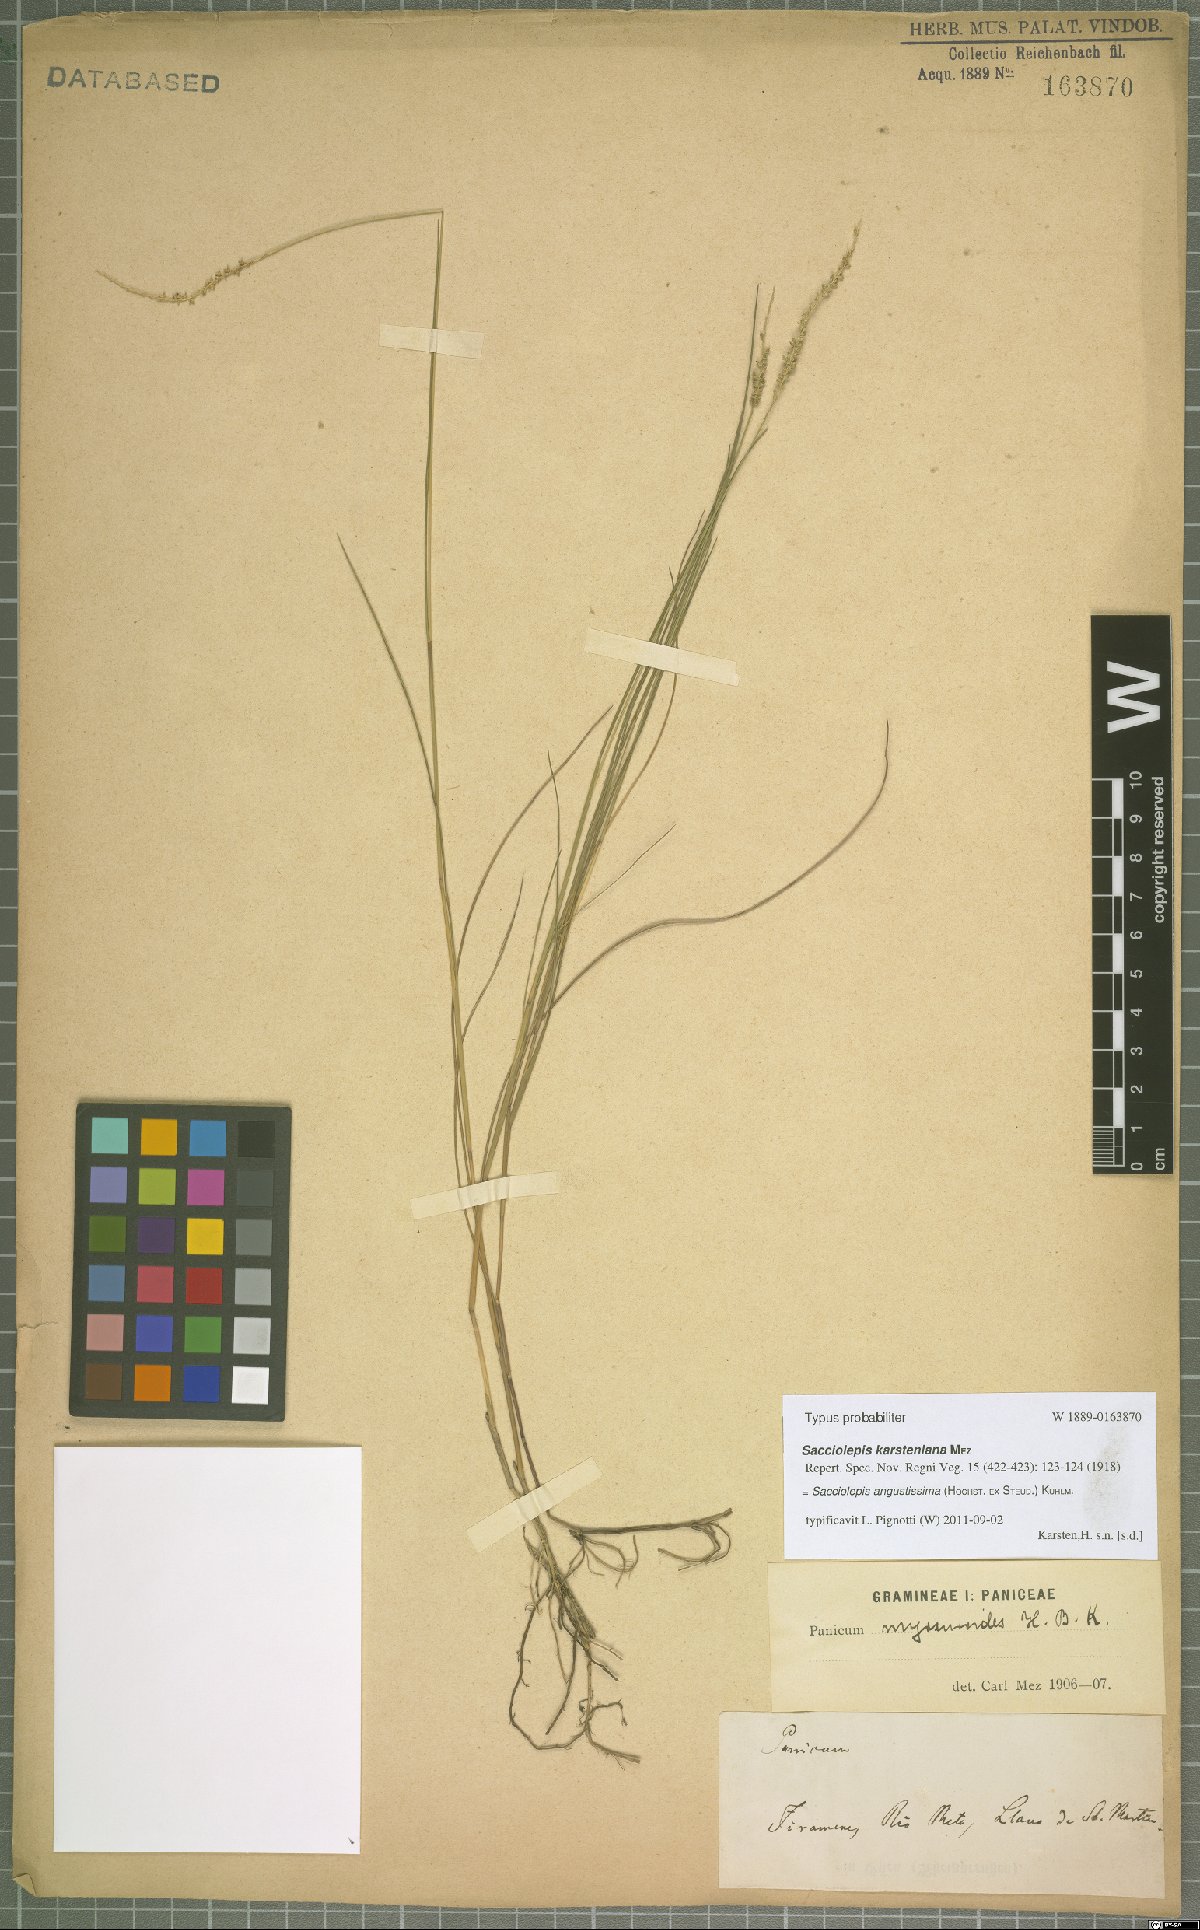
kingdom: Plantae
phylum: Tracheophyta
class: Liliopsida
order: Poales
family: Poaceae
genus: Sacciolepis
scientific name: Sacciolepis angustissima
